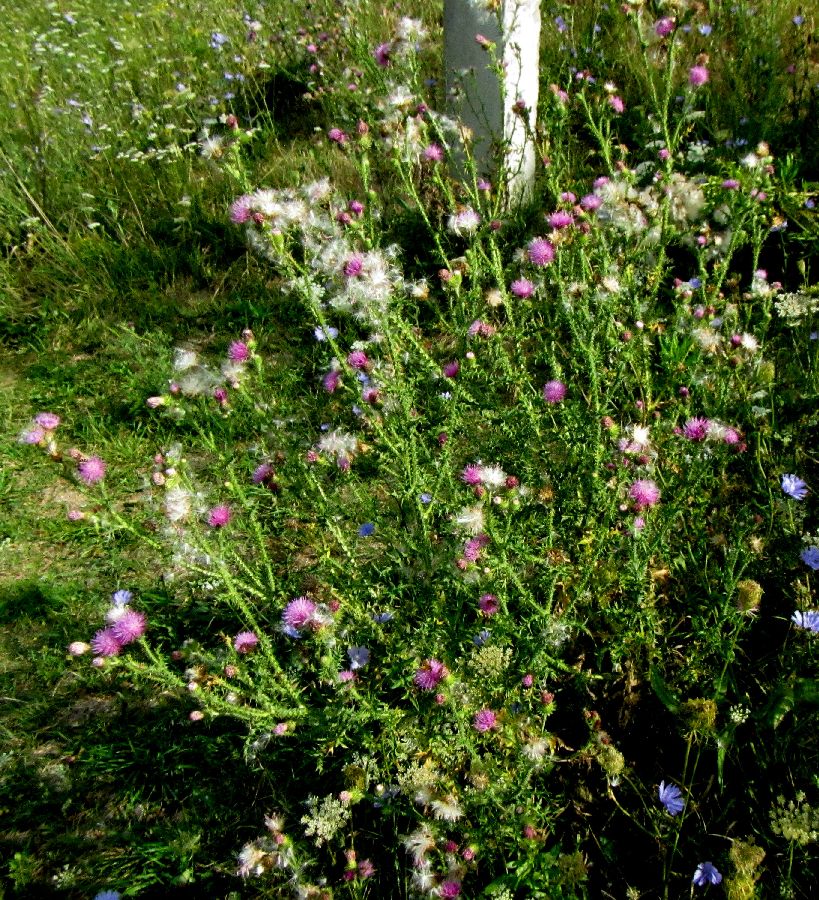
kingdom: Plantae
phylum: Tracheophyta
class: Magnoliopsida
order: Asterales
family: Asteraceae
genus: Carduus
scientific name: Carduus acanthoides
